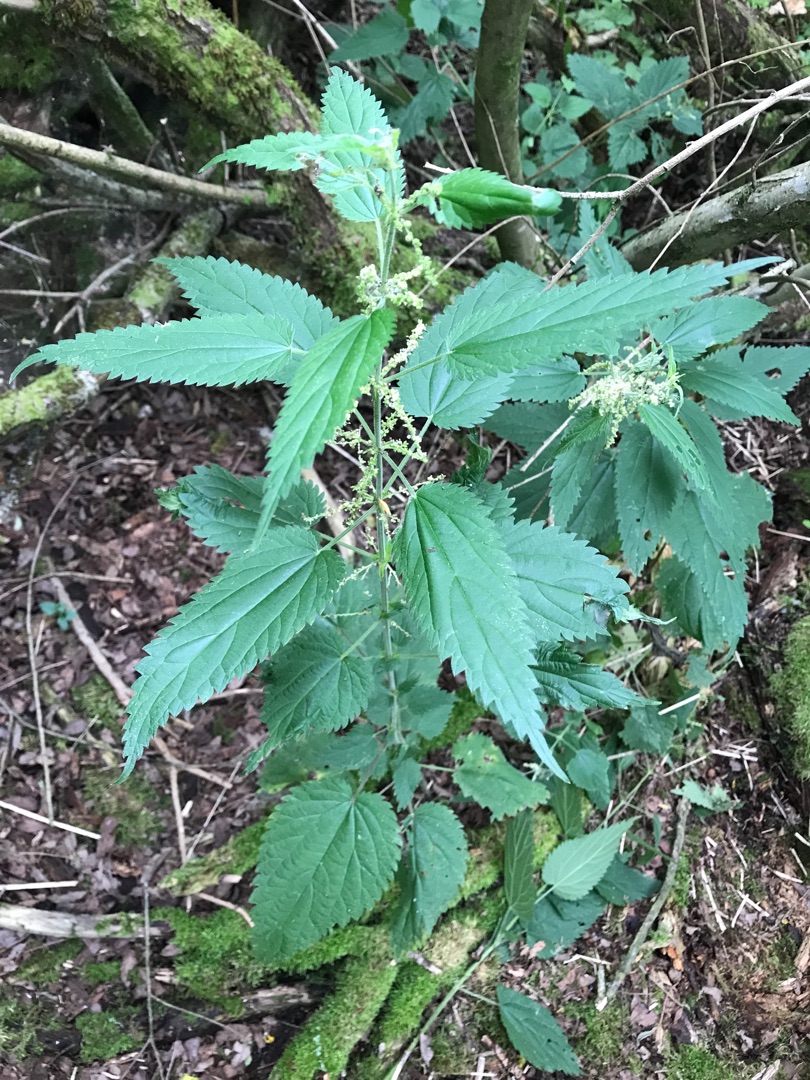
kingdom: Plantae
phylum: Tracheophyta
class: Magnoliopsida
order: Rosales
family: Urticaceae
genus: Urtica
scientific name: Urtica dioica
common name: Skov-nælde
